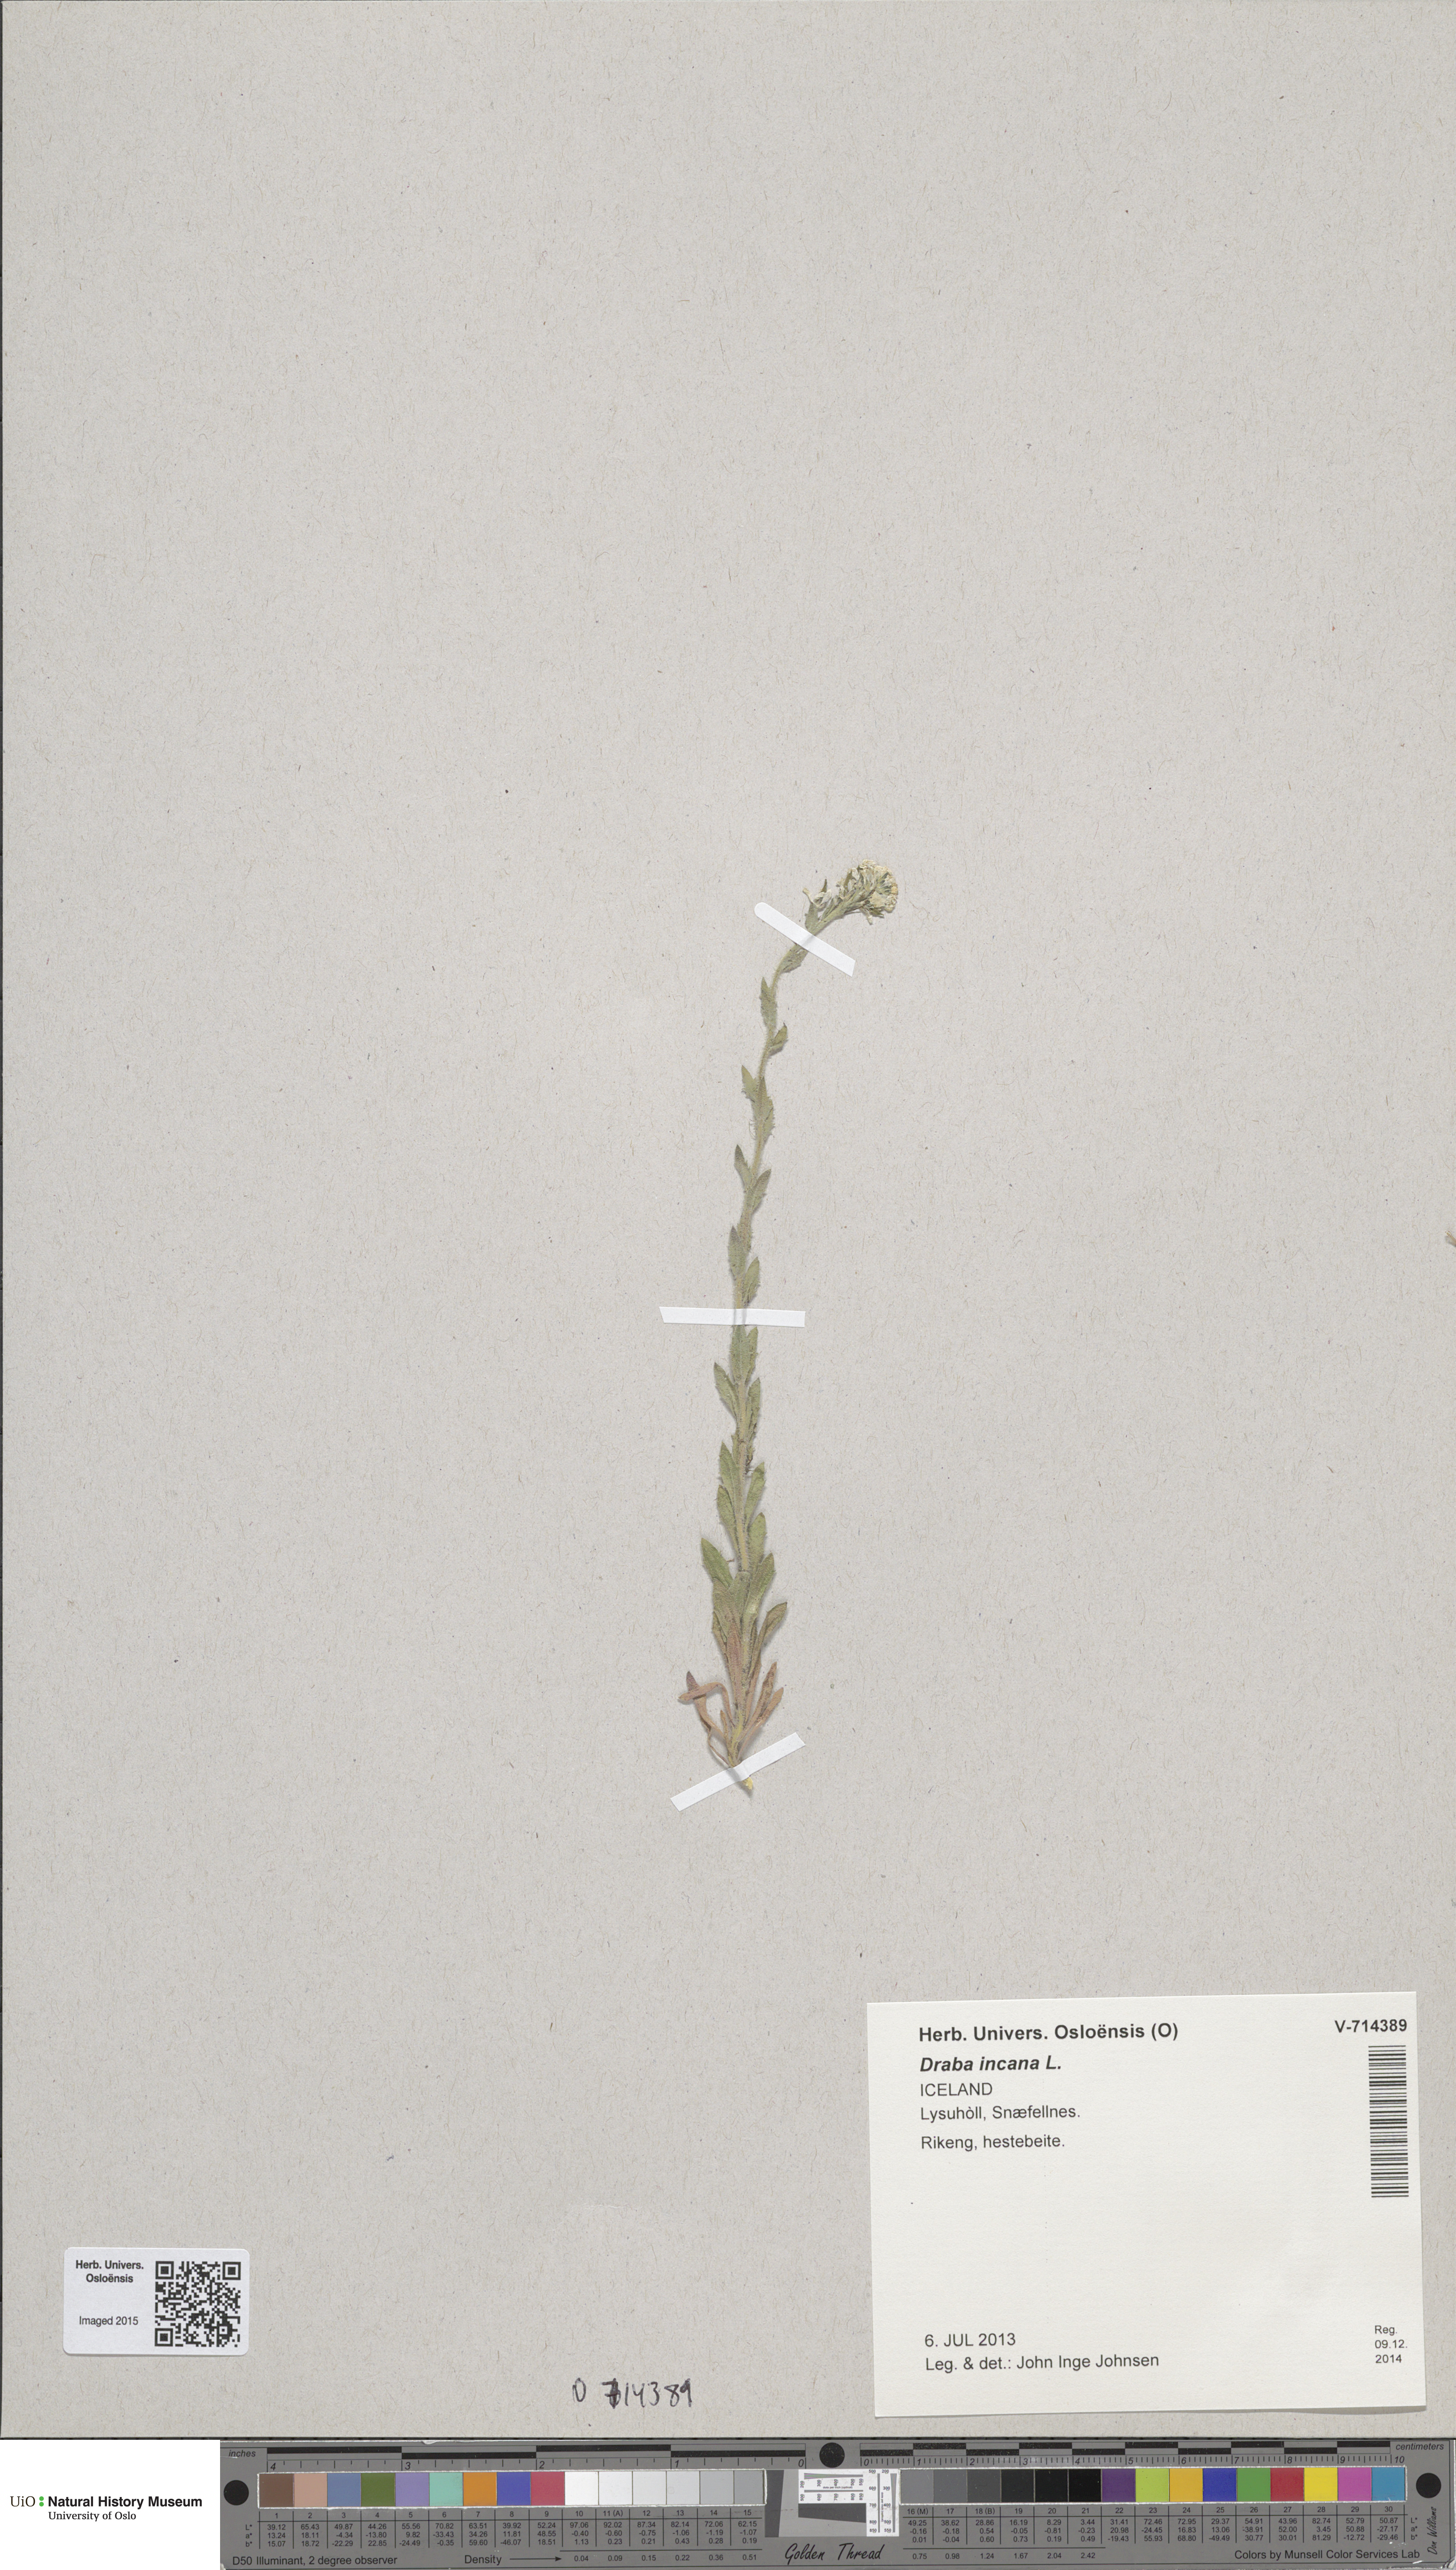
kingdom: Plantae
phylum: Tracheophyta
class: Magnoliopsida
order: Brassicales
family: Brassicaceae
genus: Draba
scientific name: Draba incana
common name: Hoary whitlow-grass
